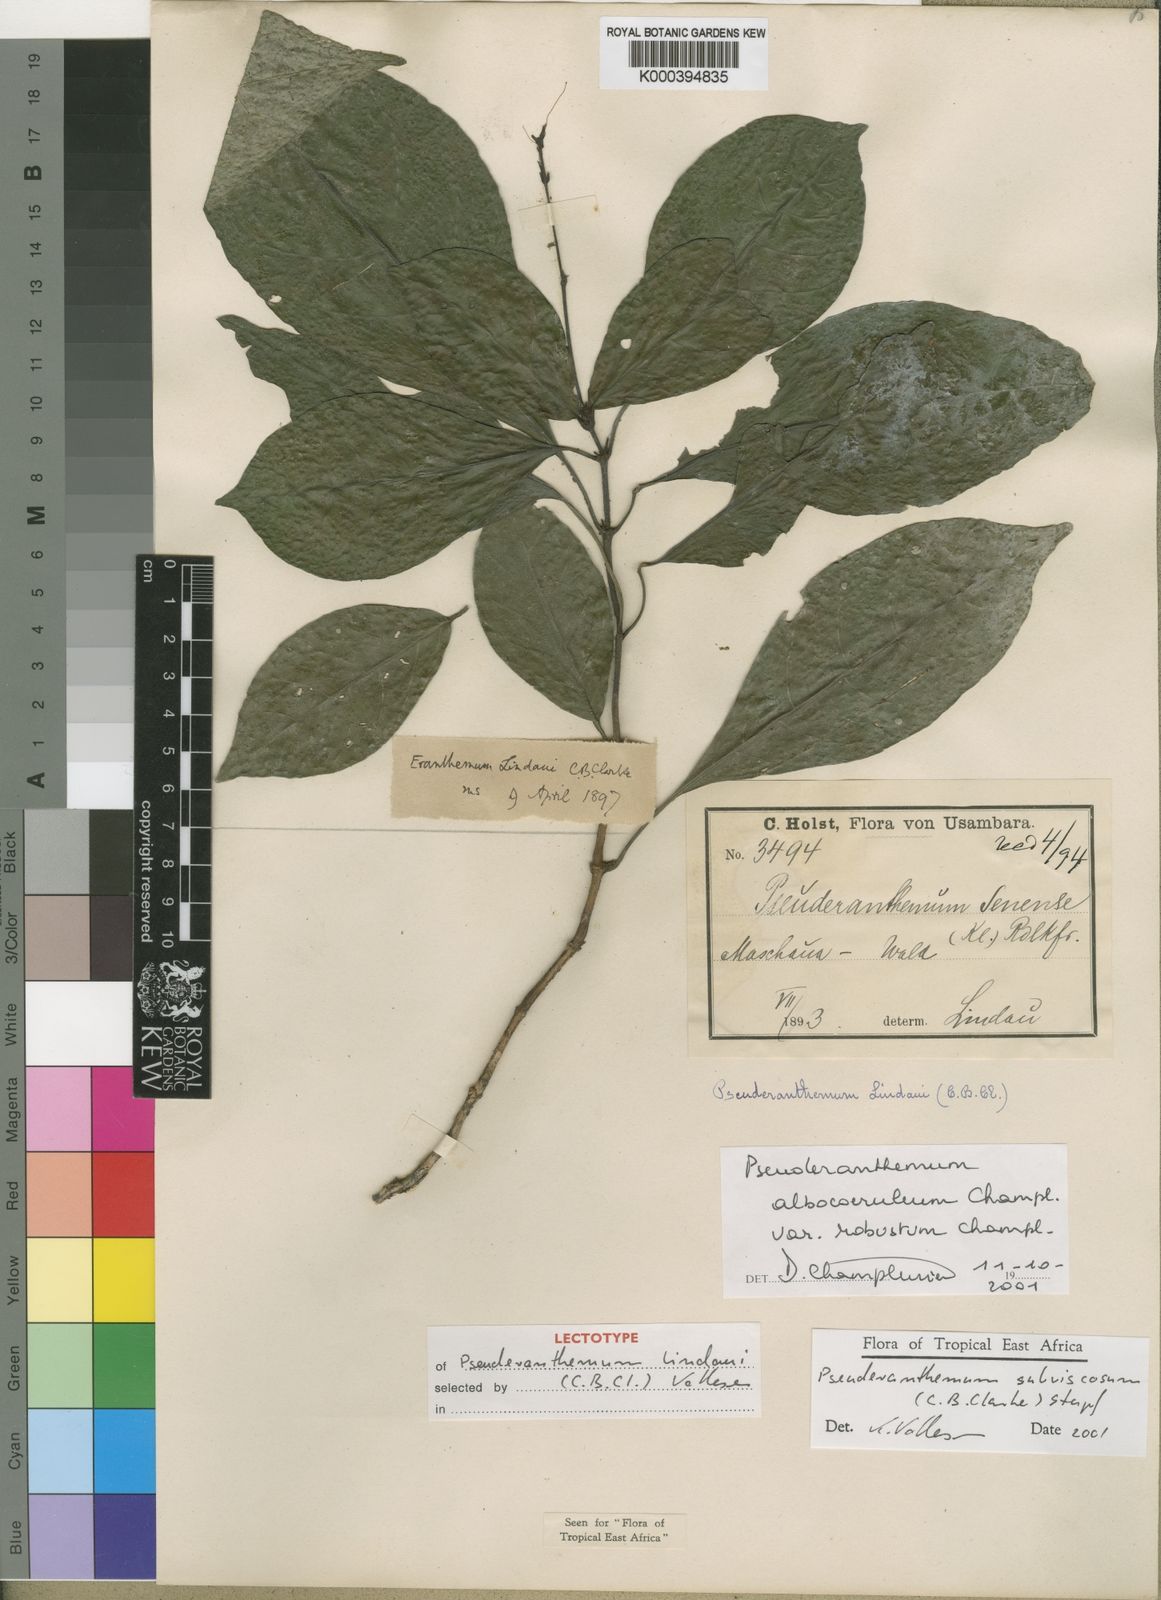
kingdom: Plantae
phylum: Tracheophyta
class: Magnoliopsida
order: Lamiales
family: Acanthaceae
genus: Pseuderanthemum
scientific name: Pseuderanthemum subviscosum
